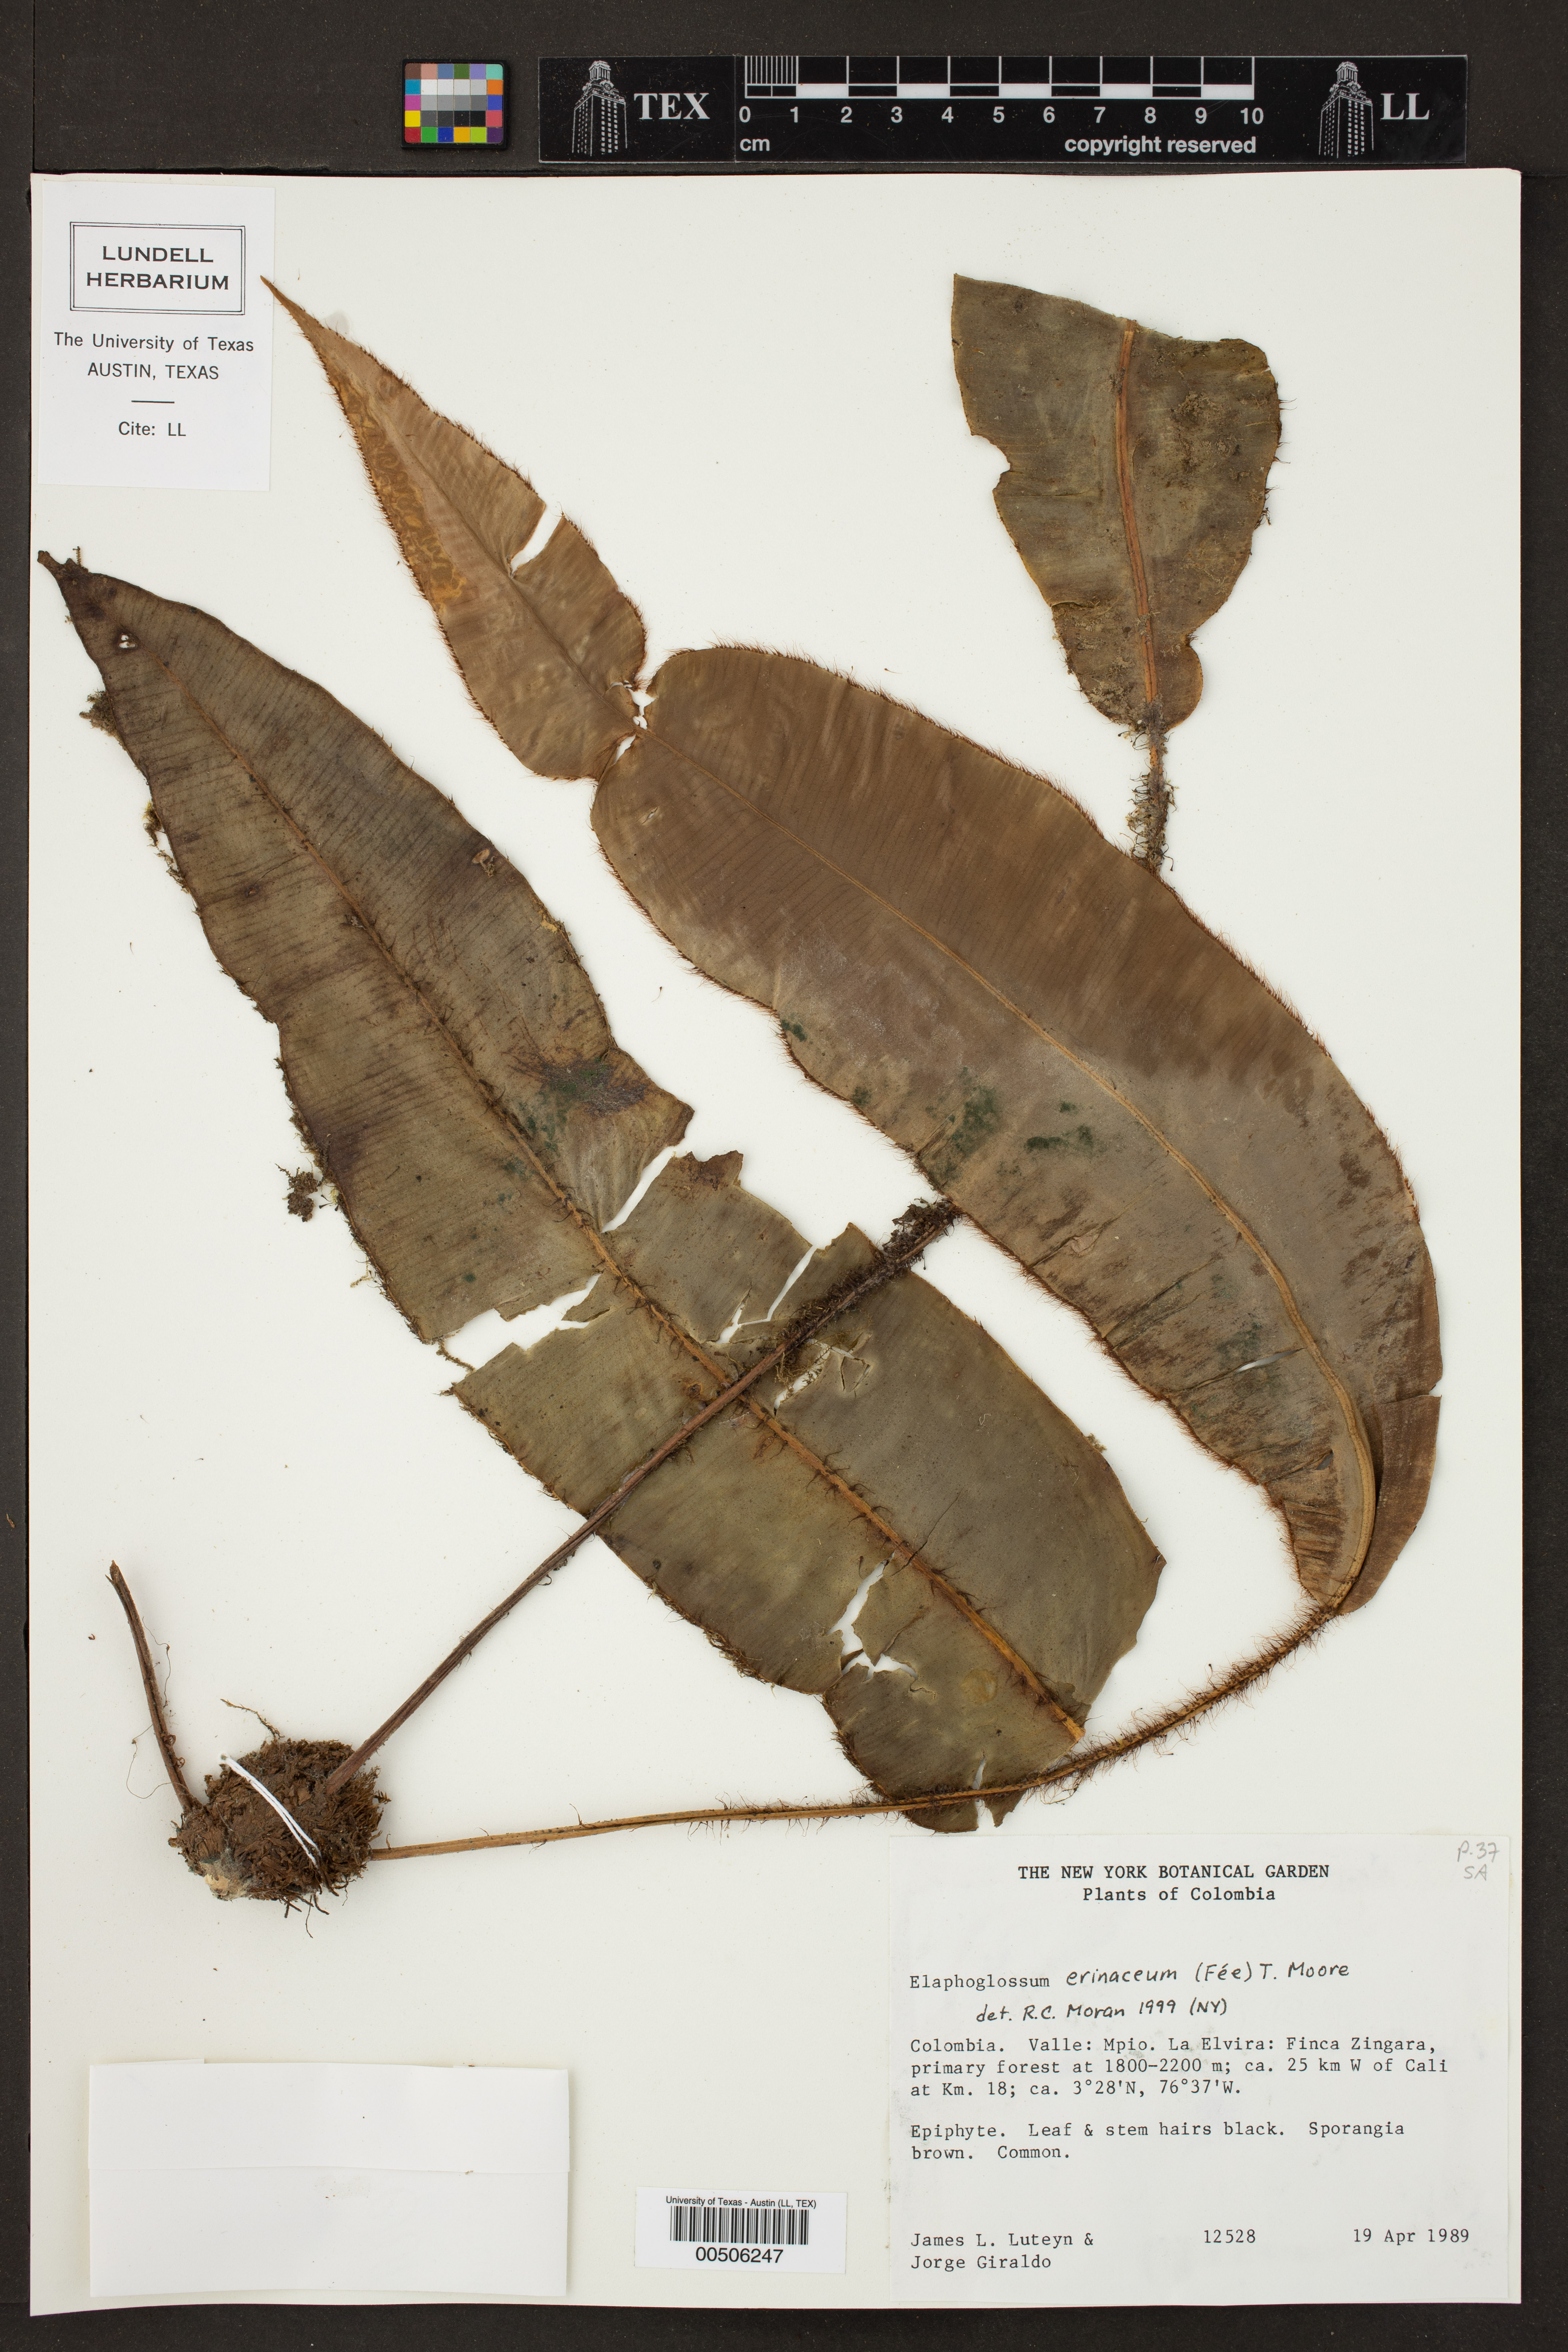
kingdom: Plantae
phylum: Tracheophyta
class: Polypodiopsida
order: Polypodiales
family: Dryopteridaceae
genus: Elaphoglossum
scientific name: Elaphoglossum erinaceum
